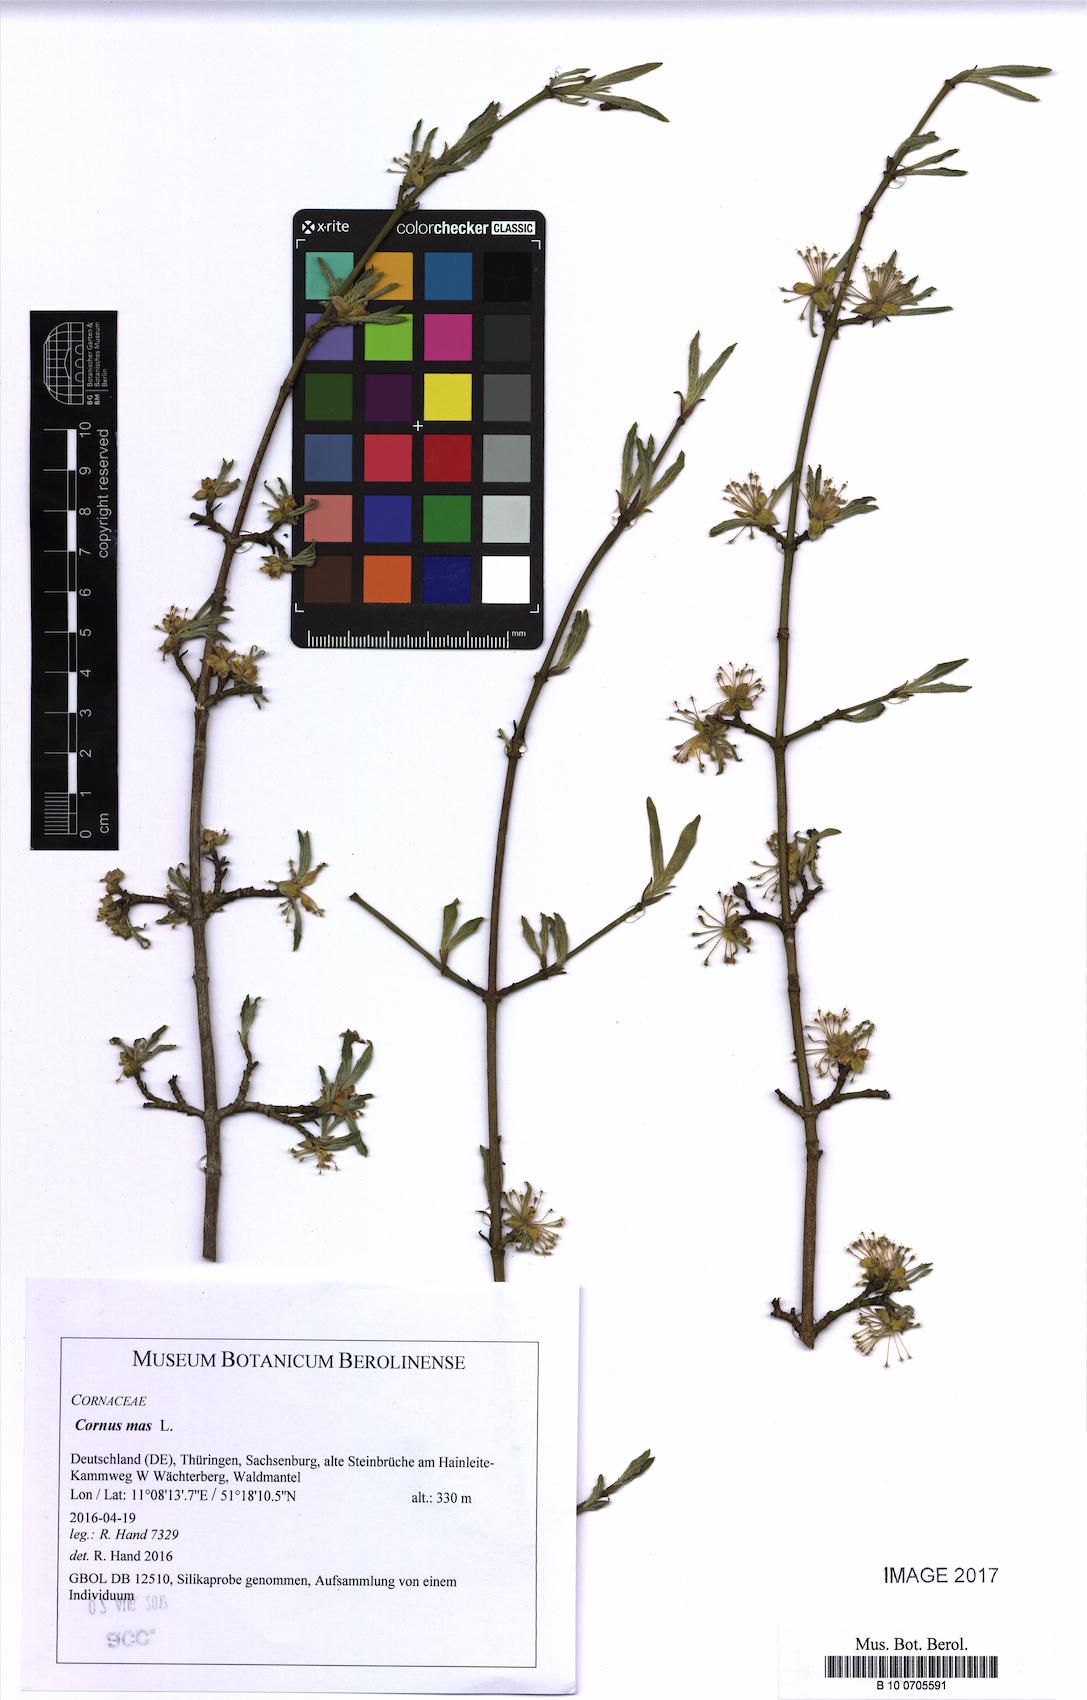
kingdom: Plantae
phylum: Tracheophyta
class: Magnoliopsida
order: Cornales
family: Cornaceae
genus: Cornus
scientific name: Cornus mas
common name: Cornelian-cherry
